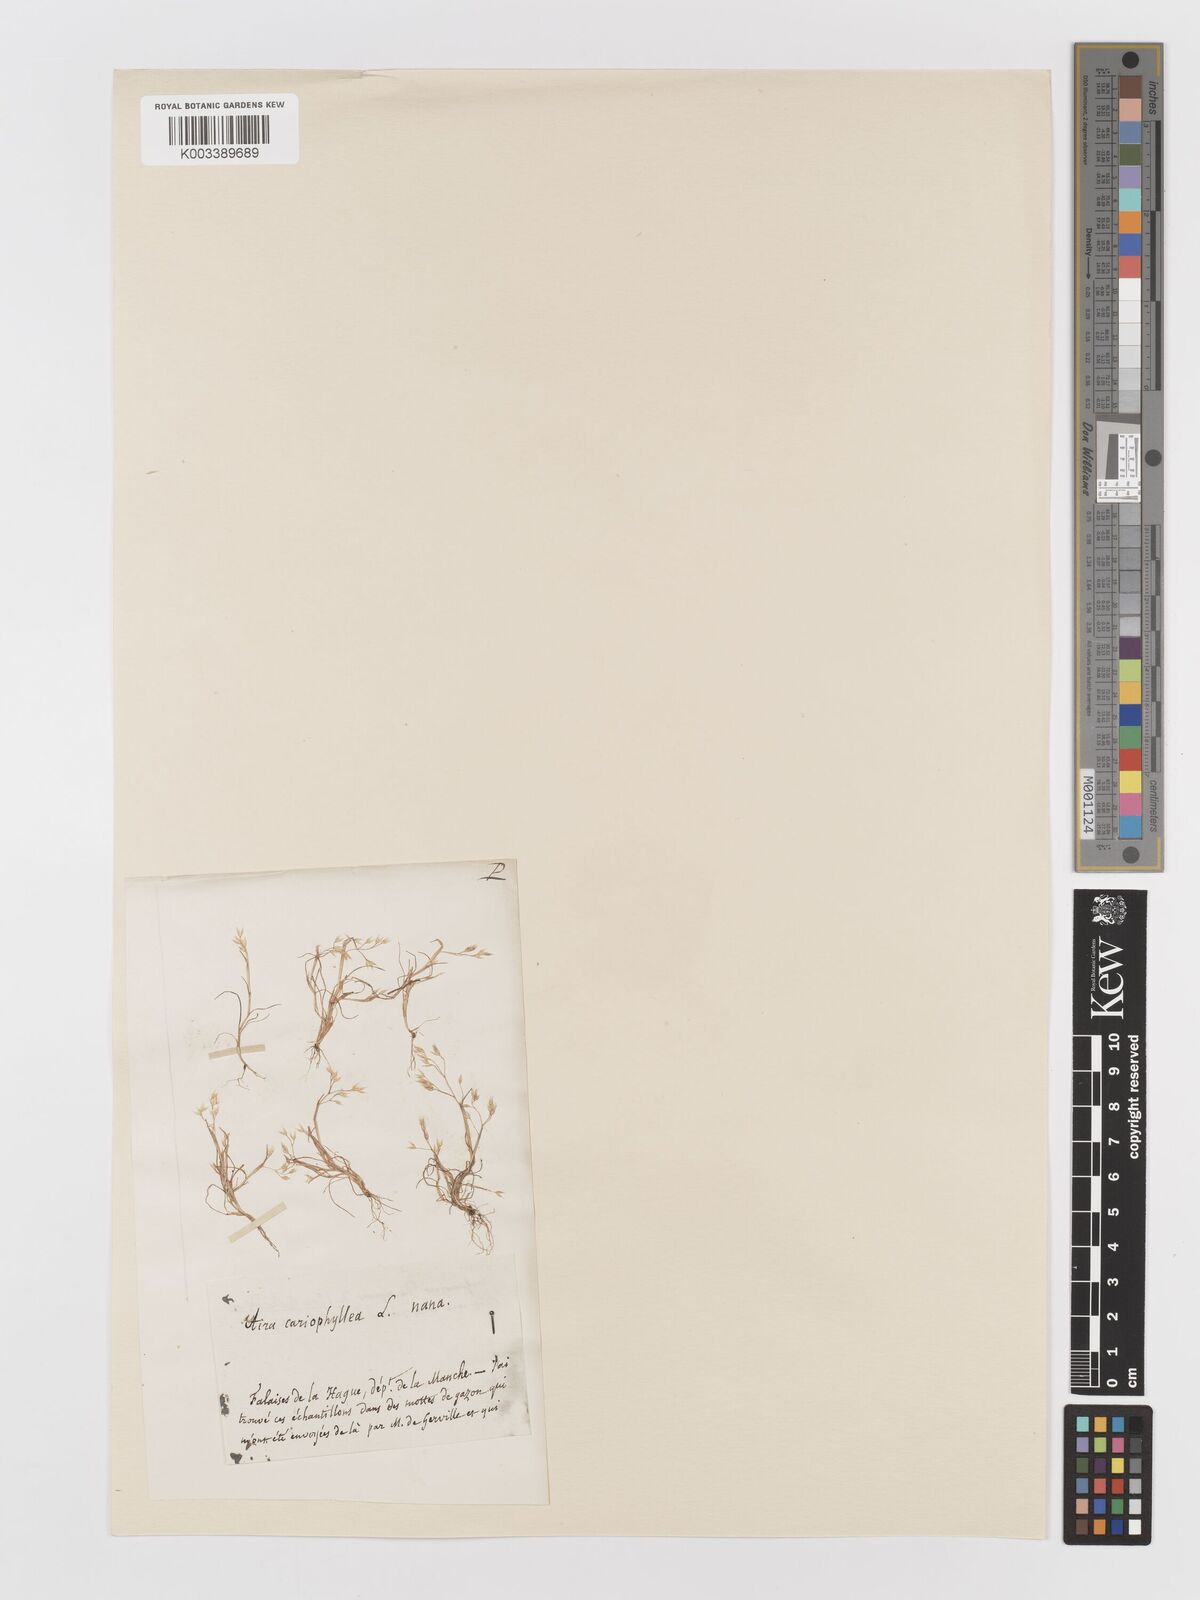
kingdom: Plantae
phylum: Tracheophyta
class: Liliopsida
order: Poales
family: Poaceae
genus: Aira
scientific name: Aira caryophyllea
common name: Silver hairgrass
